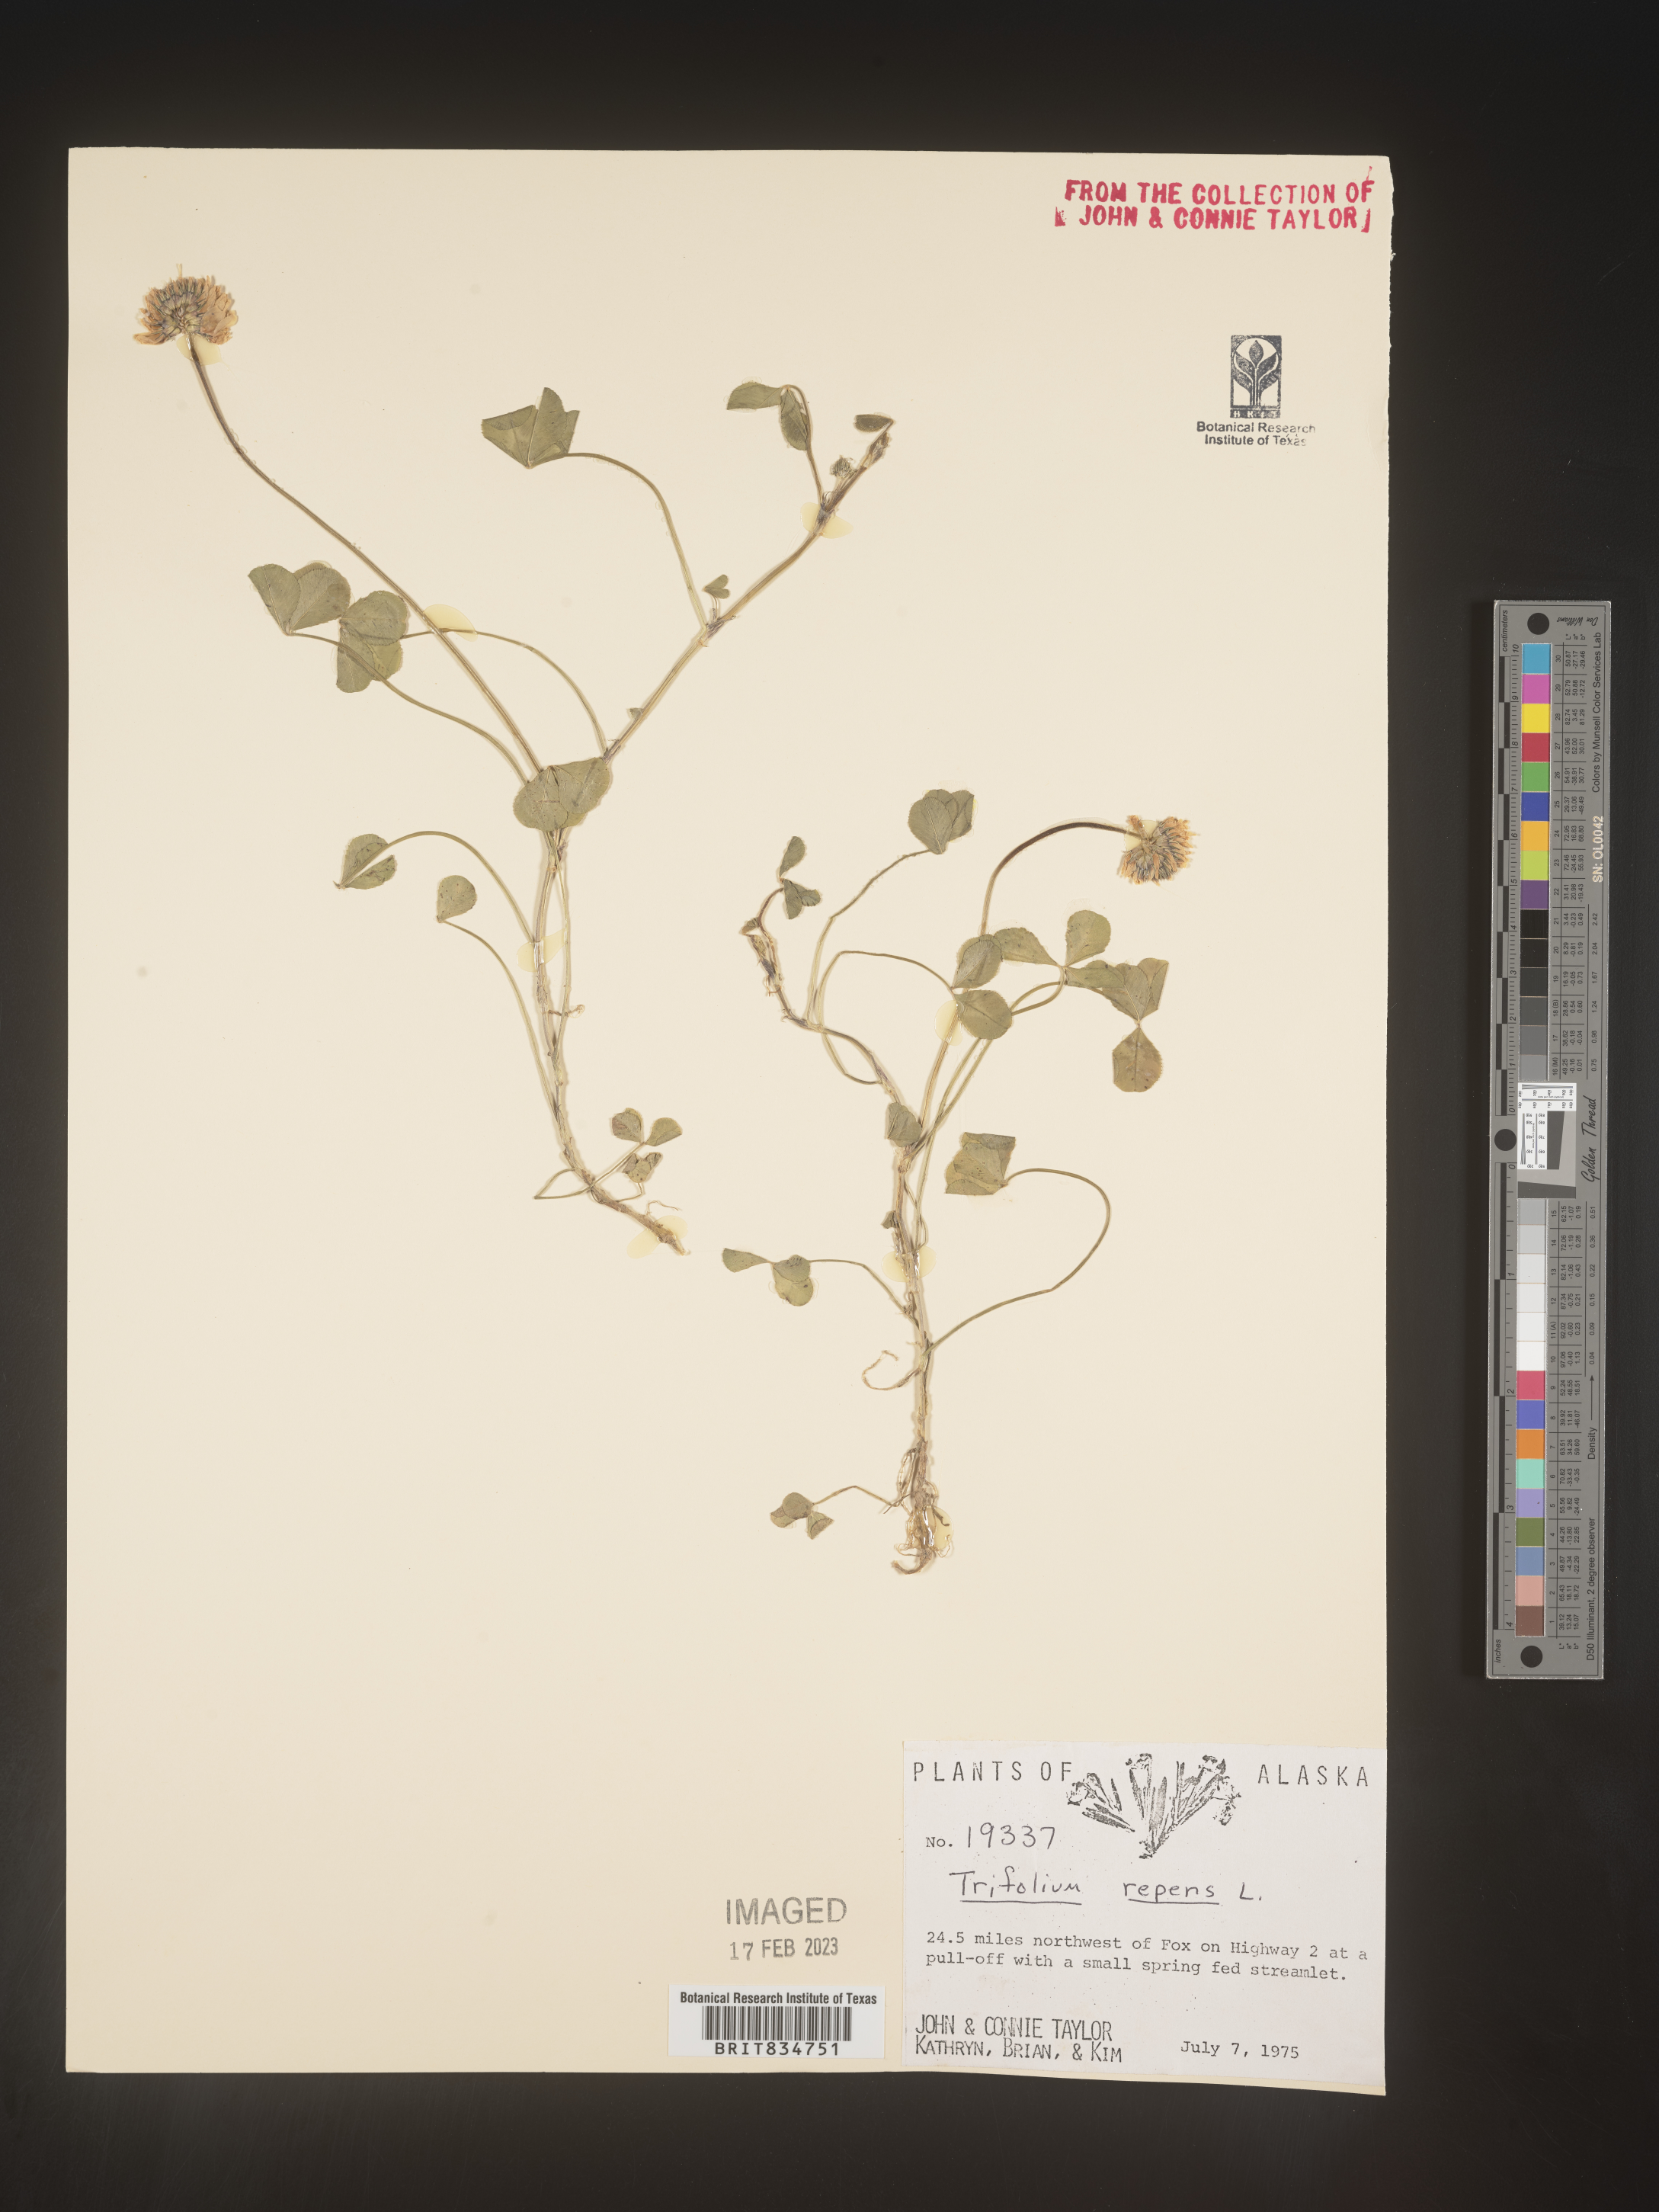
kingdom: Plantae
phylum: Tracheophyta
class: Magnoliopsida
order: Fabales
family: Fabaceae
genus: Trifolium
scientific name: Trifolium repens
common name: White clover
